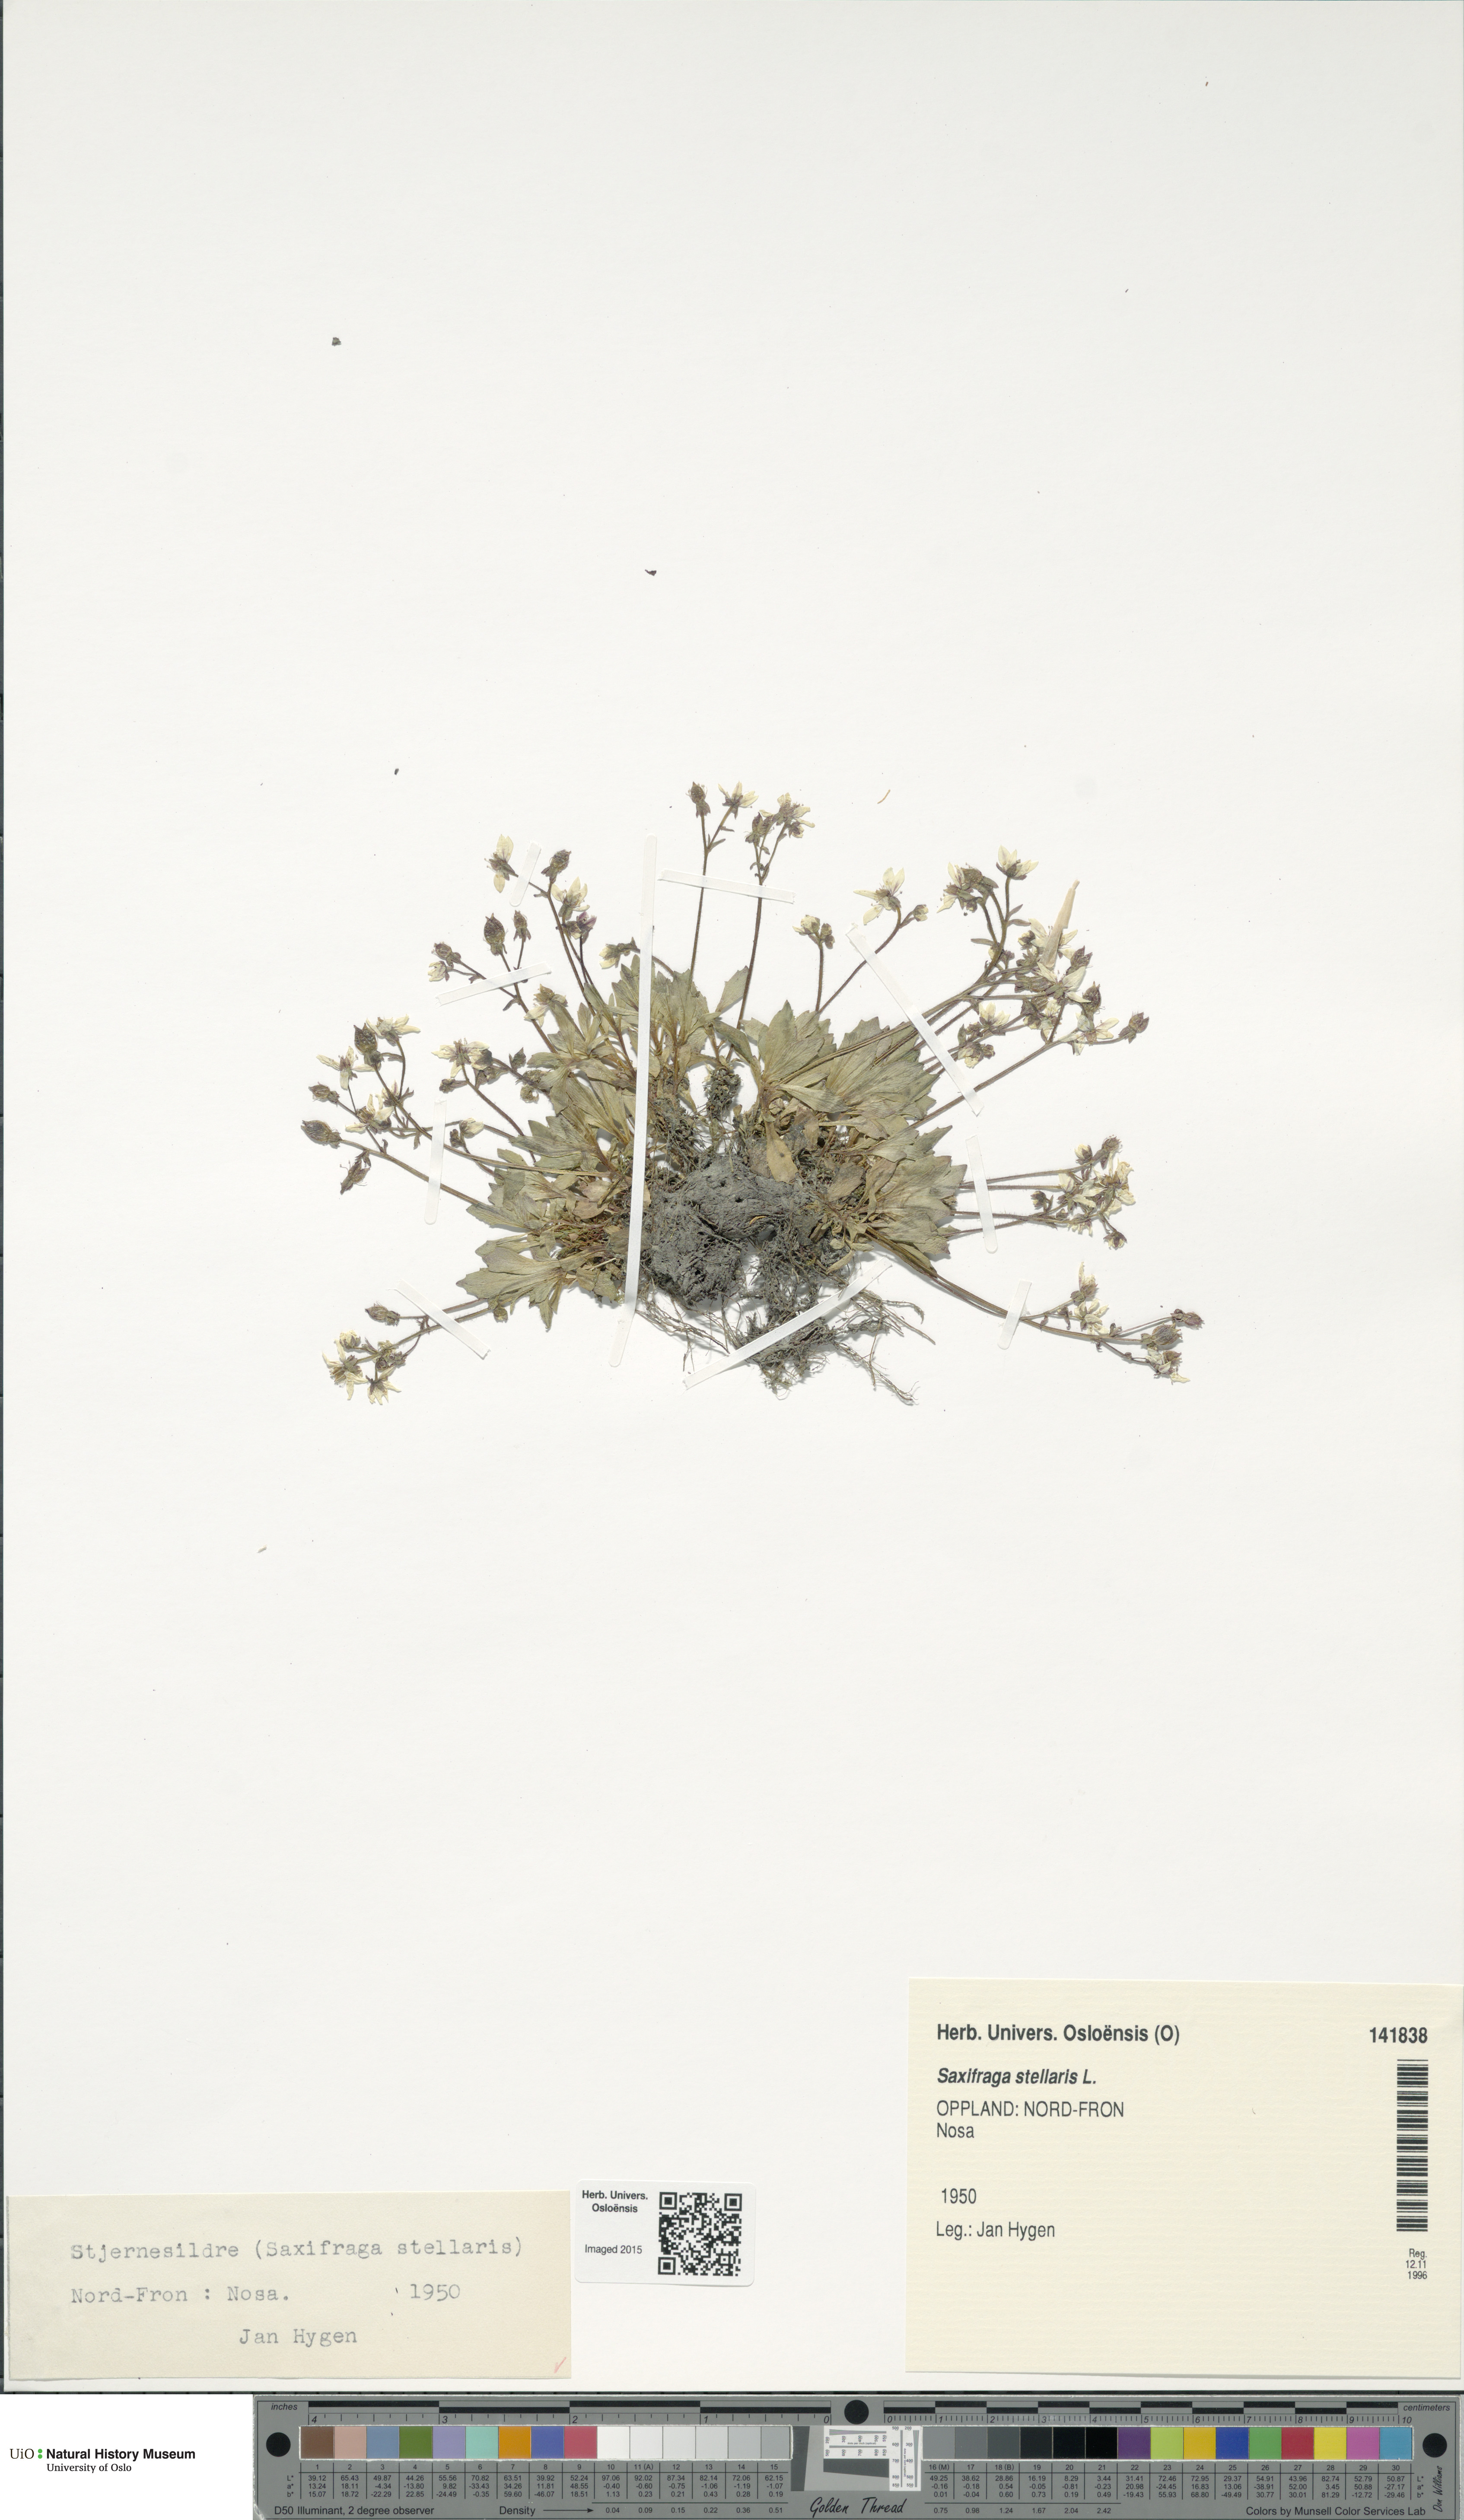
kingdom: Plantae
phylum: Tracheophyta
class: Magnoliopsida
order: Saxifragales
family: Saxifragaceae
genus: Micranthes
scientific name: Micranthes stellaris
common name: Starry saxifrage
